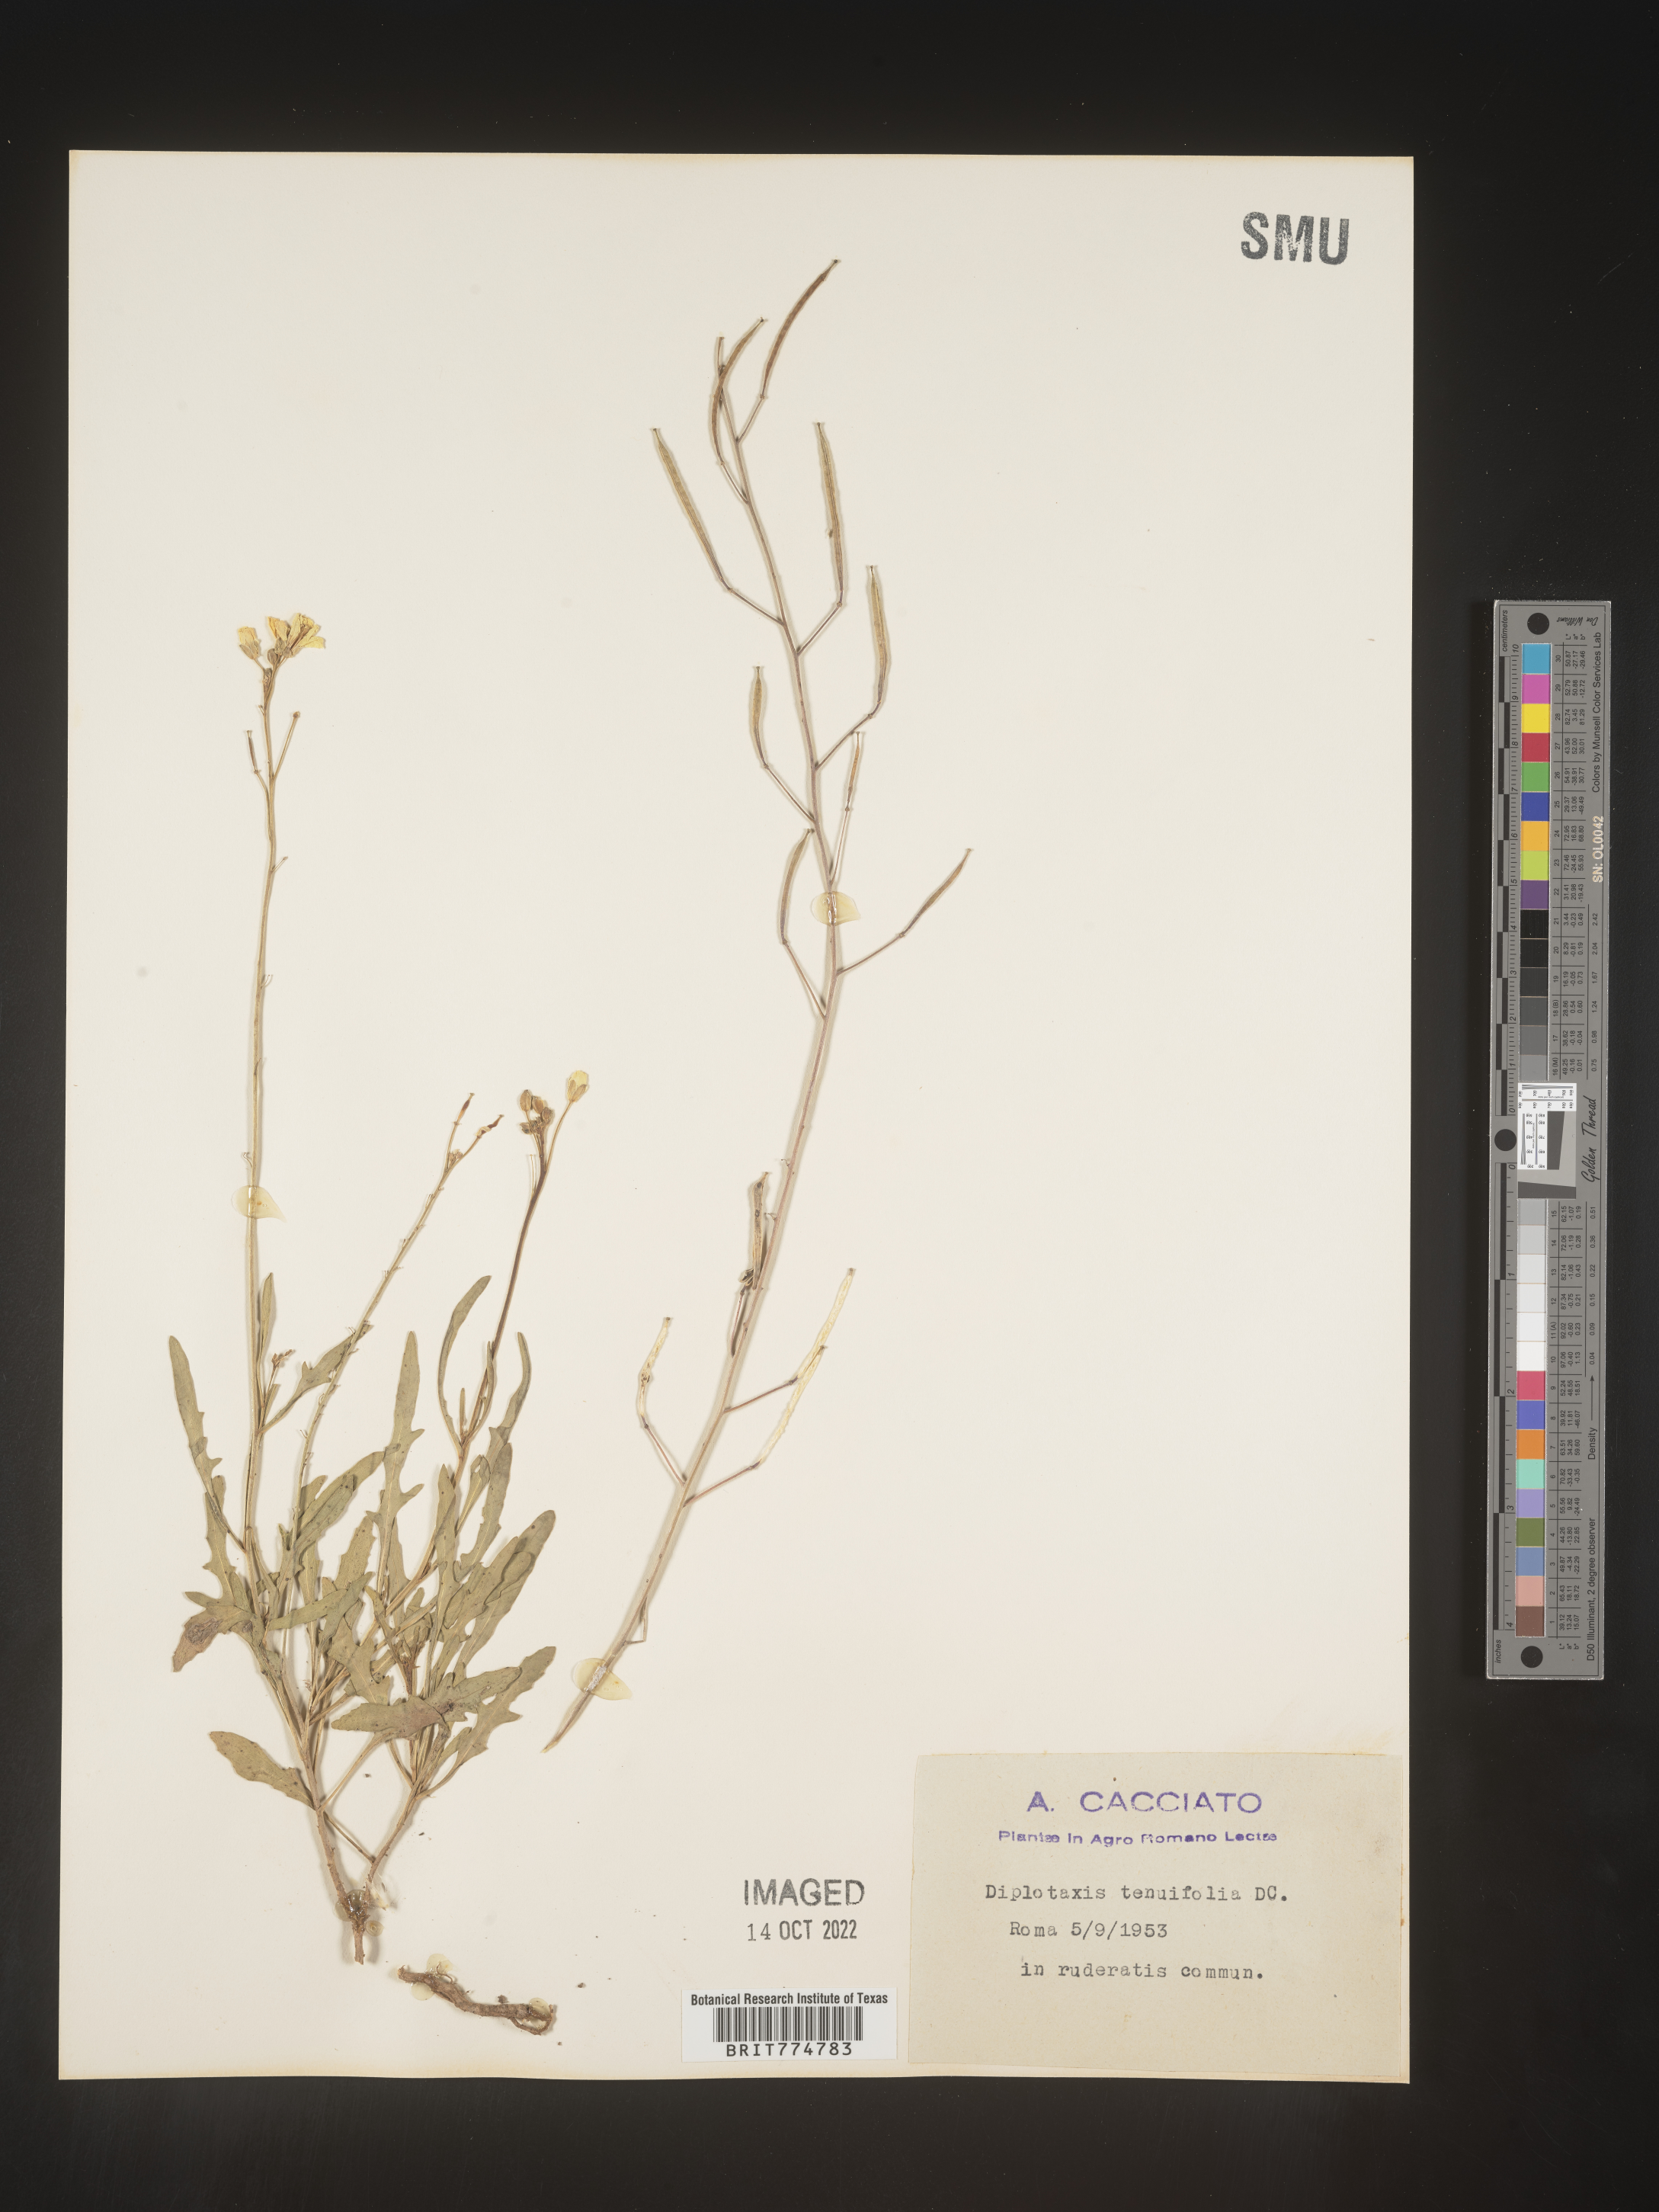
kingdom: Plantae
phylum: Tracheophyta
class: Magnoliopsida
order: Brassicales
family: Brassicaceae
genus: Diplotaxis
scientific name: Diplotaxis
